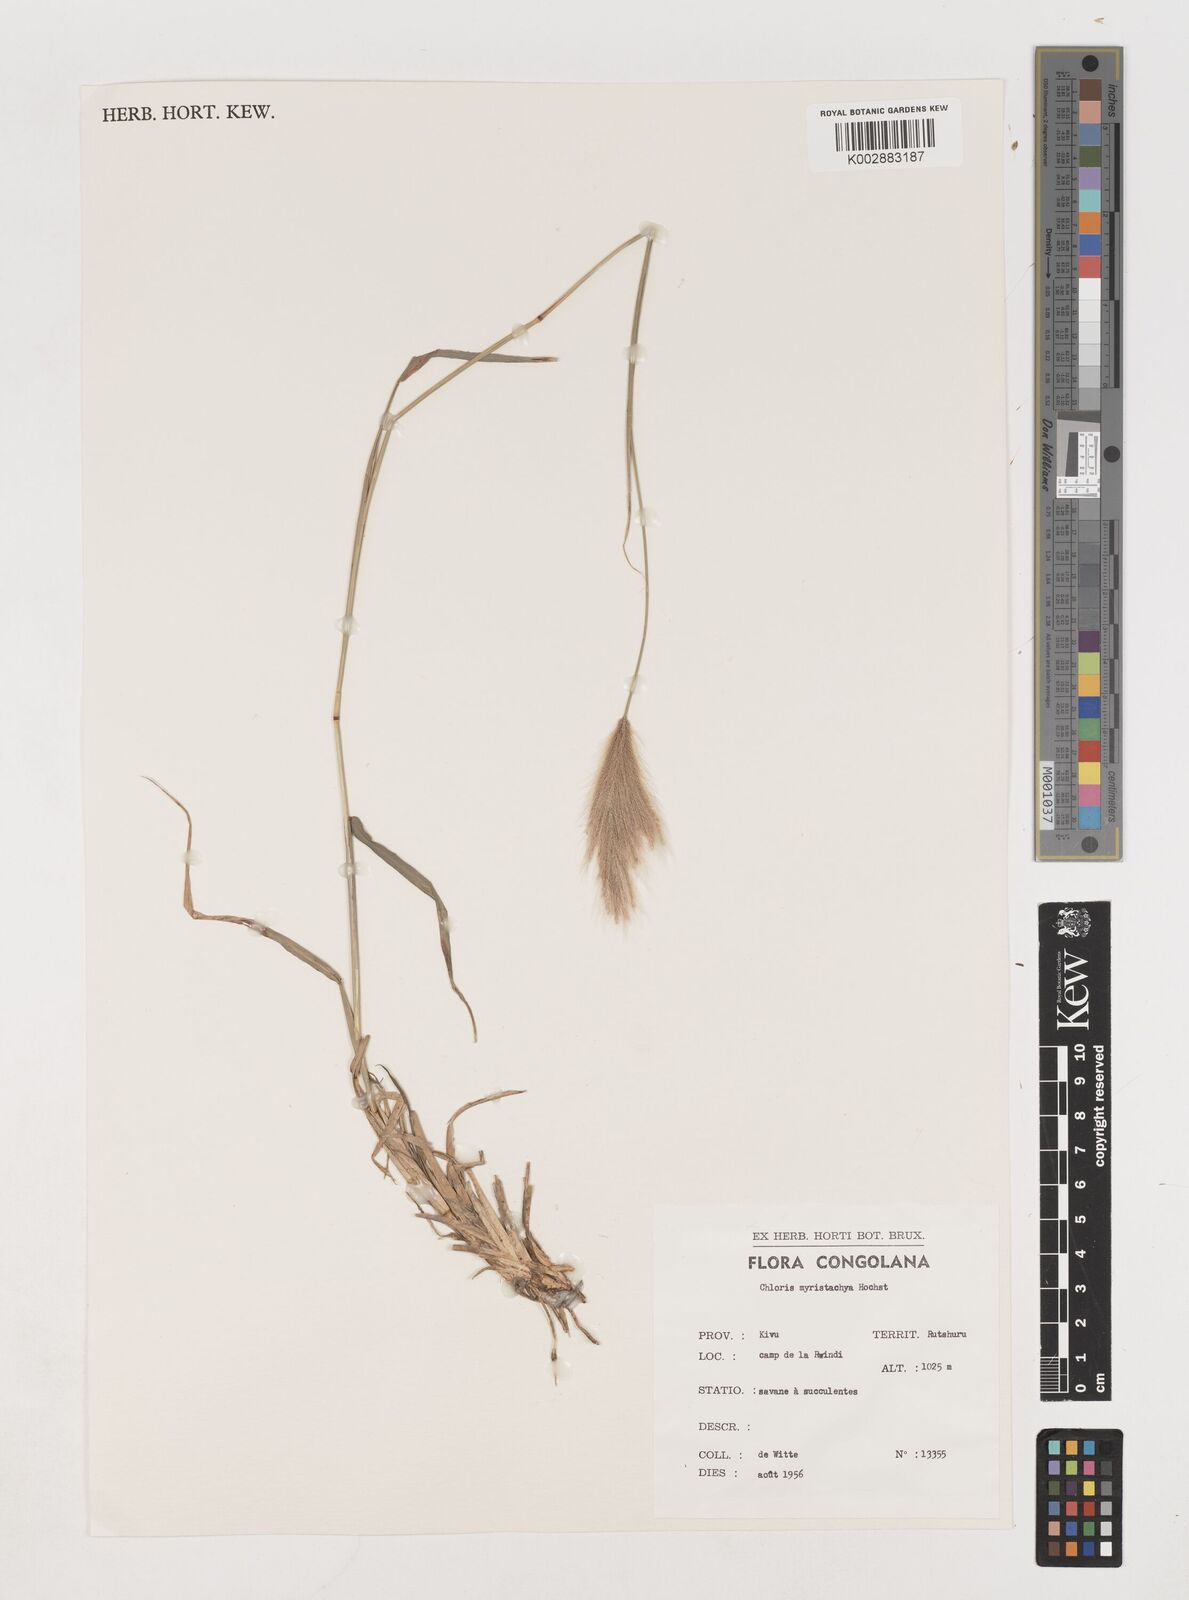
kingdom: Plantae
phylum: Tracheophyta
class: Liliopsida
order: Poales
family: Poaceae
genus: Chloris
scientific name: Chloris pycnothrix
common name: Spiderweb chloris
